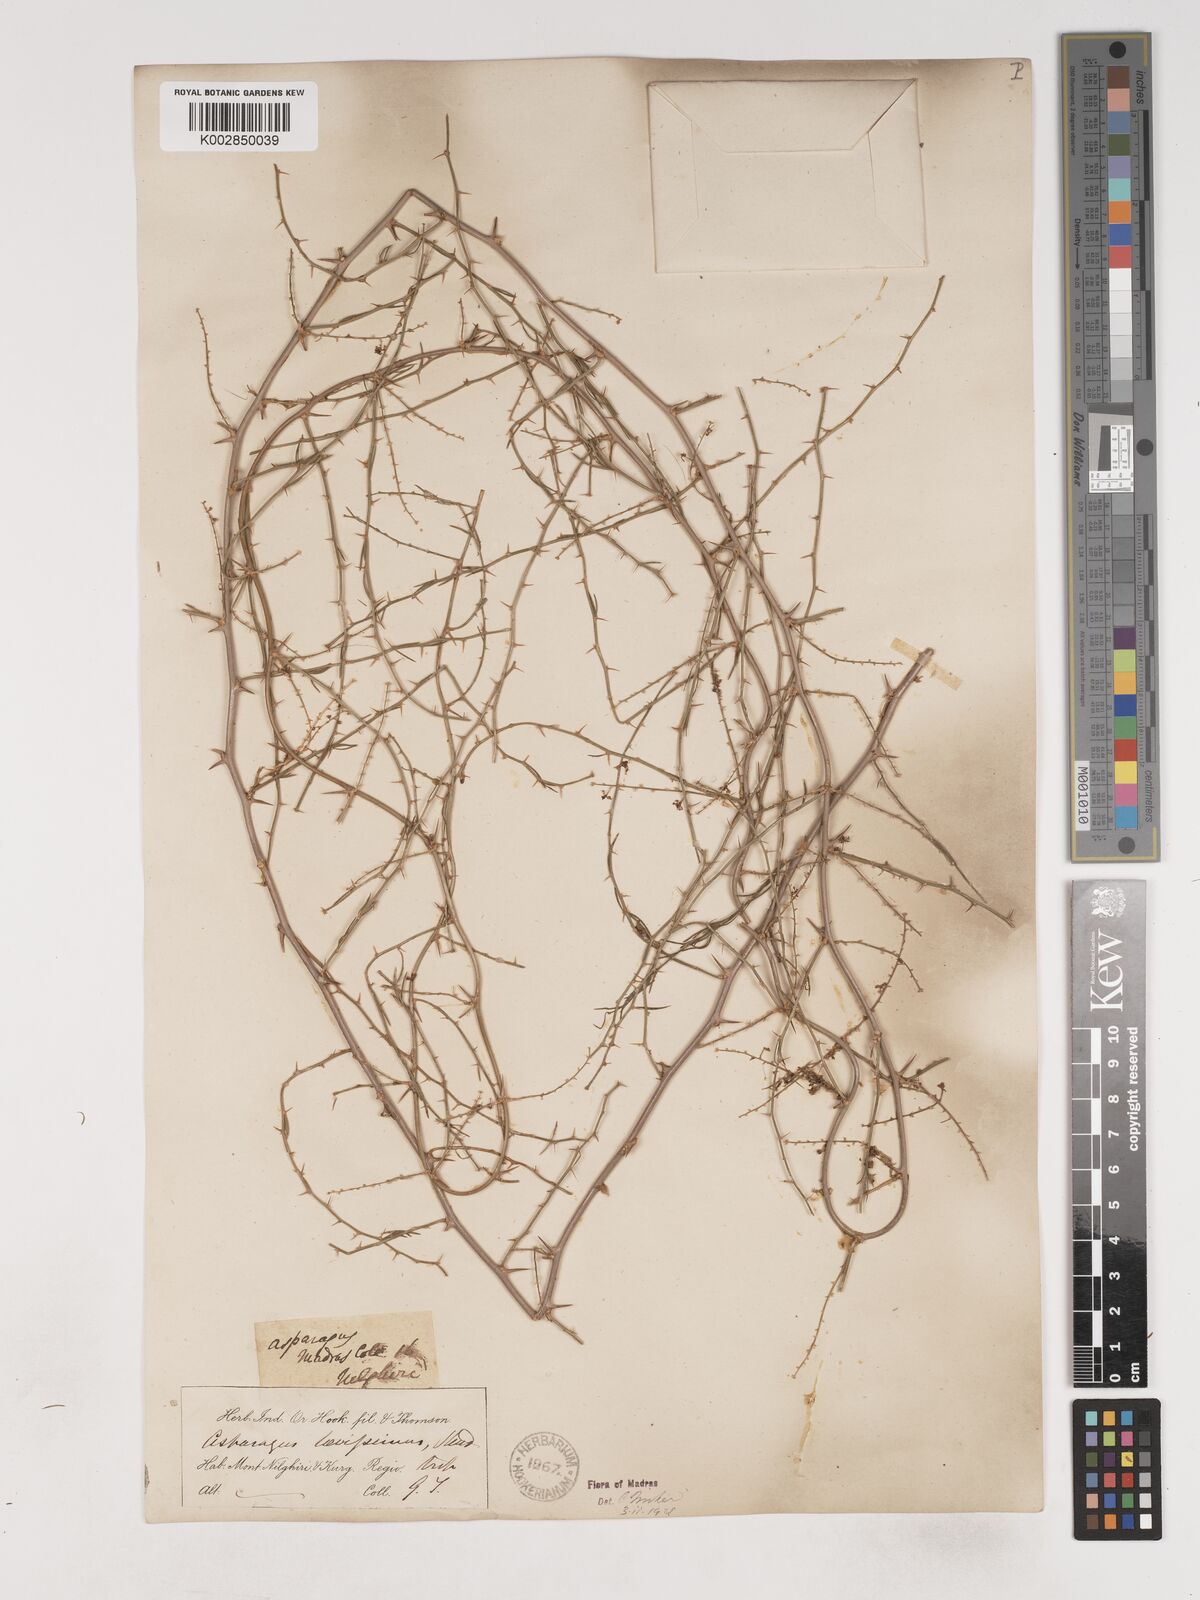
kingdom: Plantae
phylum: Tracheophyta
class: Liliopsida
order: Asparagales
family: Asparagaceae
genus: Asparagus
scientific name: Asparagus laevissimus
